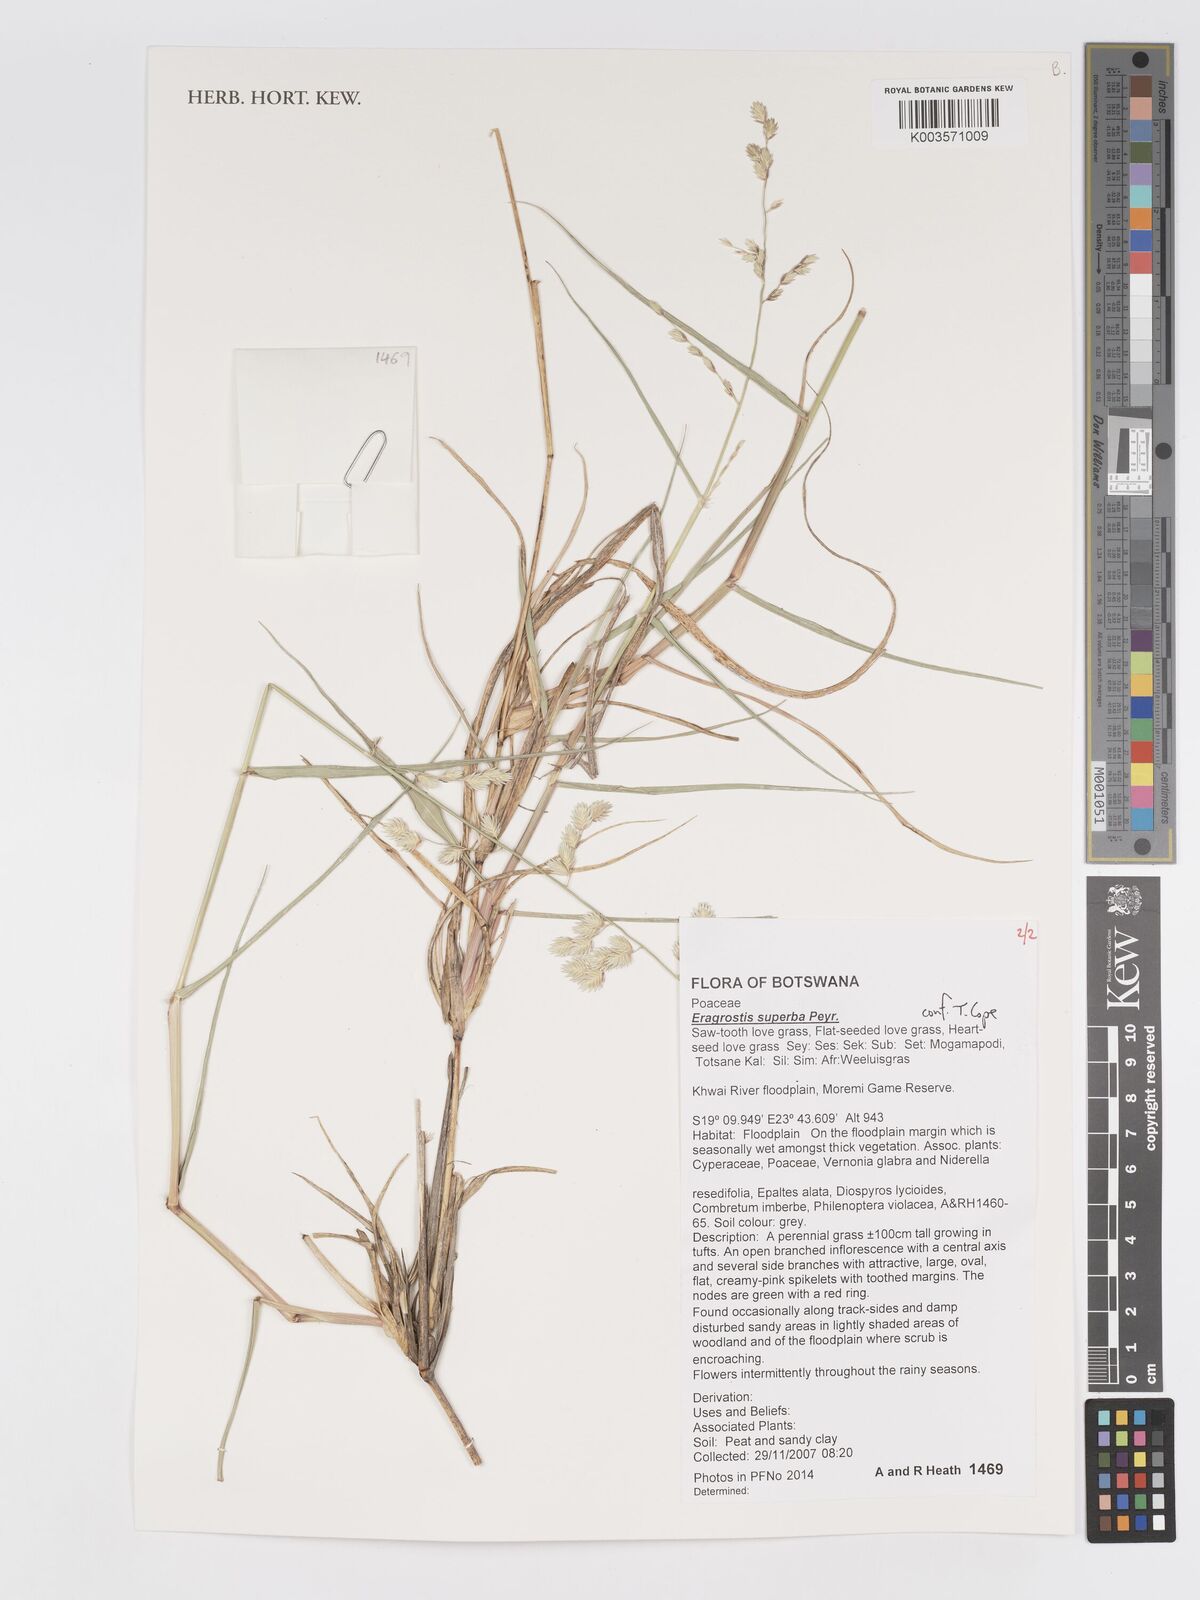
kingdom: Plantae
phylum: Tracheophyta
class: Liliopsida
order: Poales
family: Poaceae
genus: Eragrostis
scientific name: Eragrostis superba
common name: Wilman lovegrass
